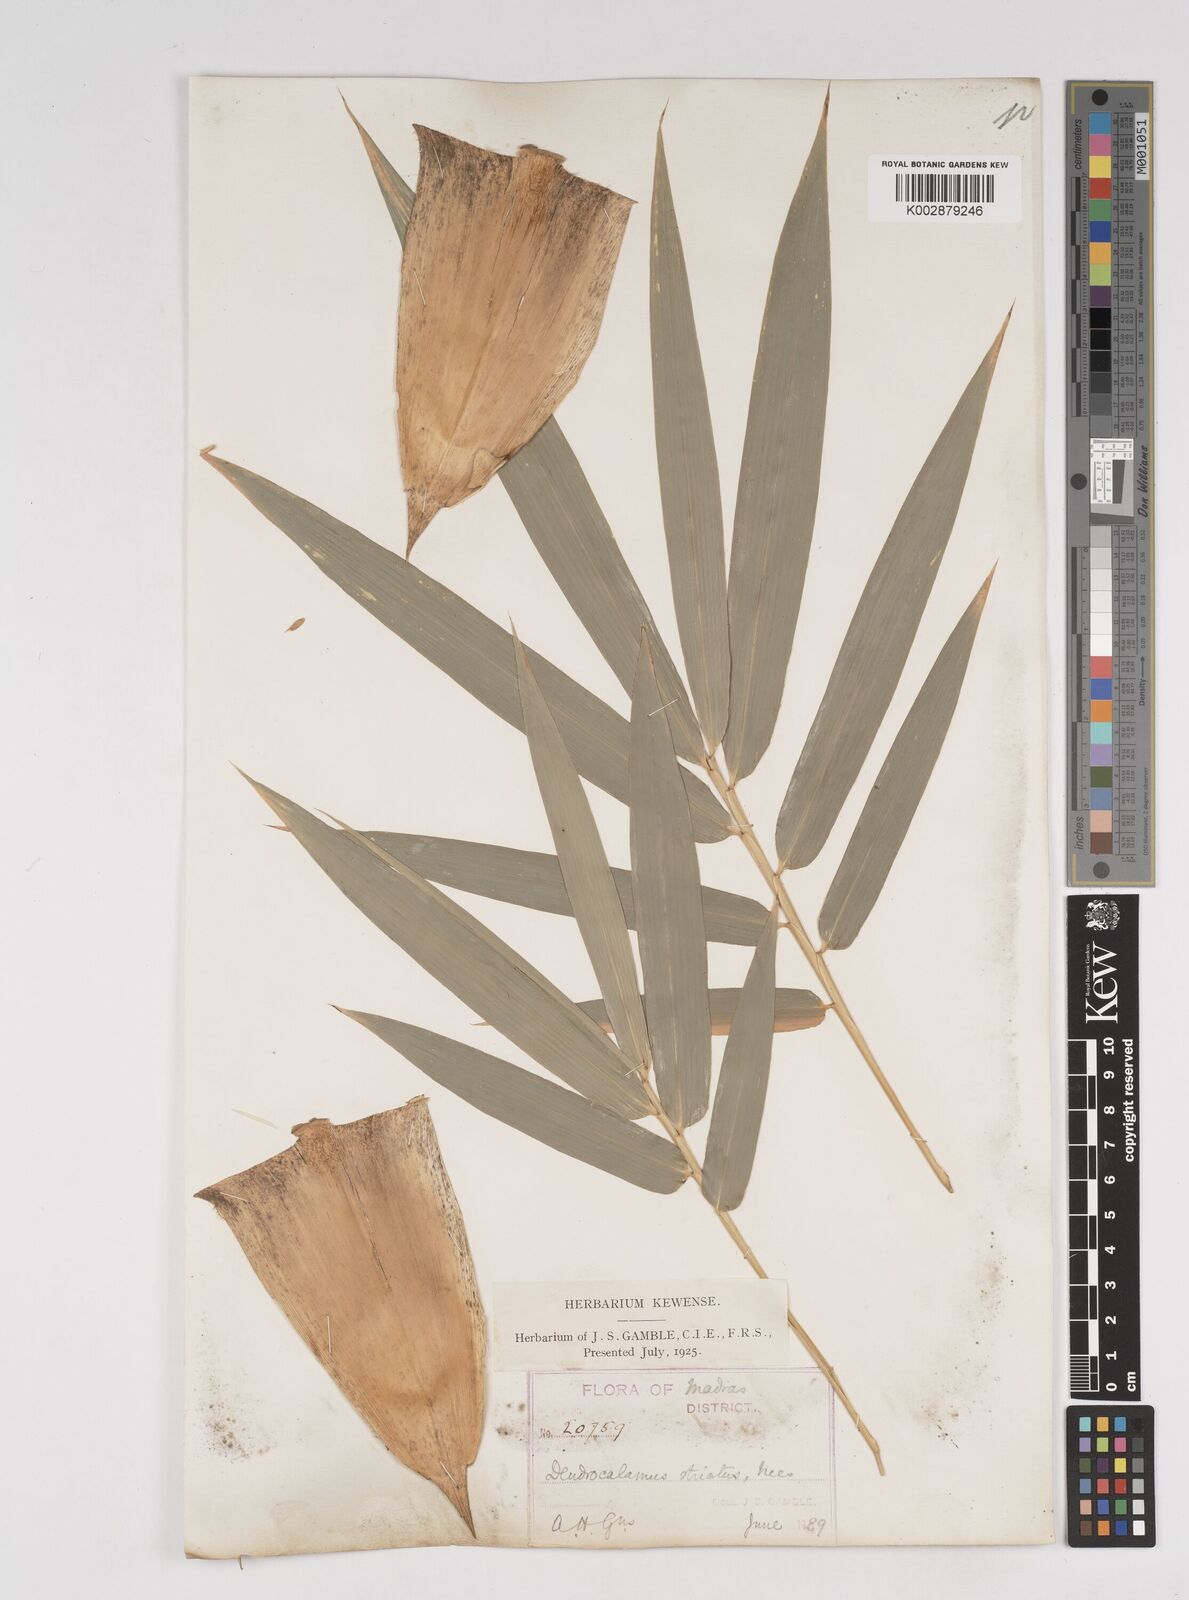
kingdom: Plantae
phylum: Tracheophyta
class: Liliopsida
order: Poales
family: Poaceae
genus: Dendrocalamus
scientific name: Dendrocalamus strictus
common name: Male bamboo
